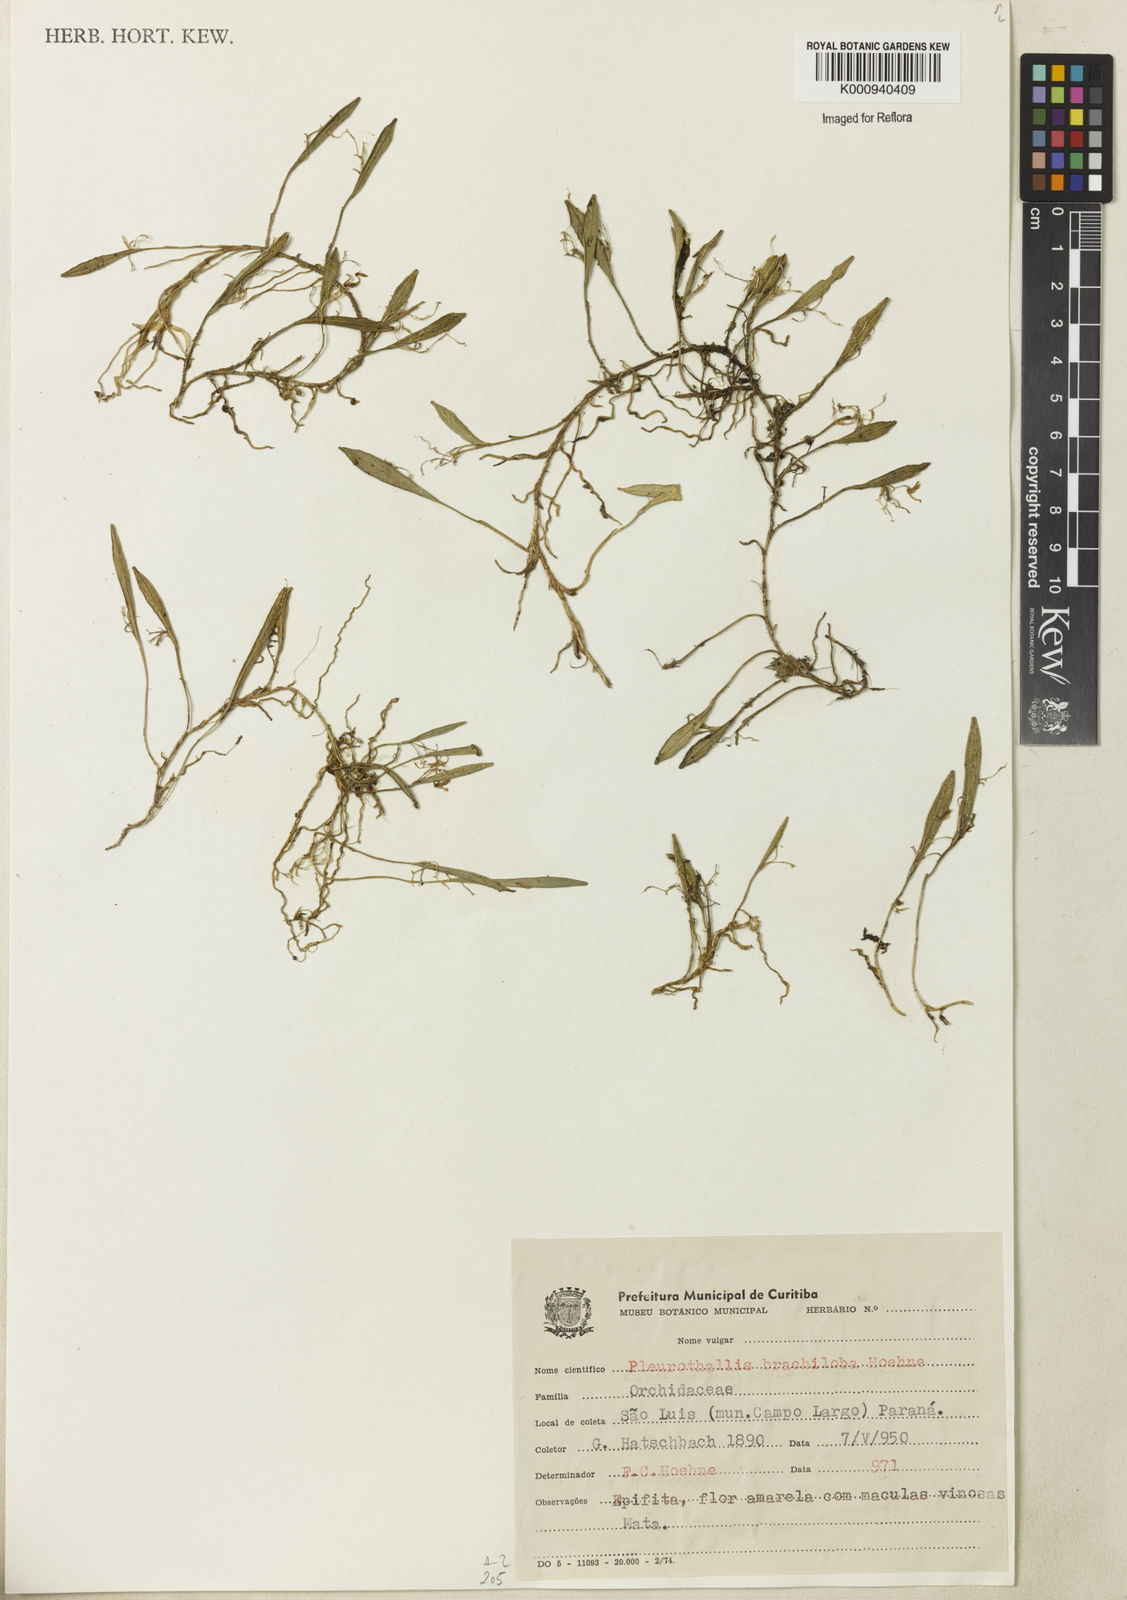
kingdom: Plantae
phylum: Tracheophyta
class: Liliopsida
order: Asparagales
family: Orchidaceae
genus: Acianthera
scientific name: Acianthera brachiloba
